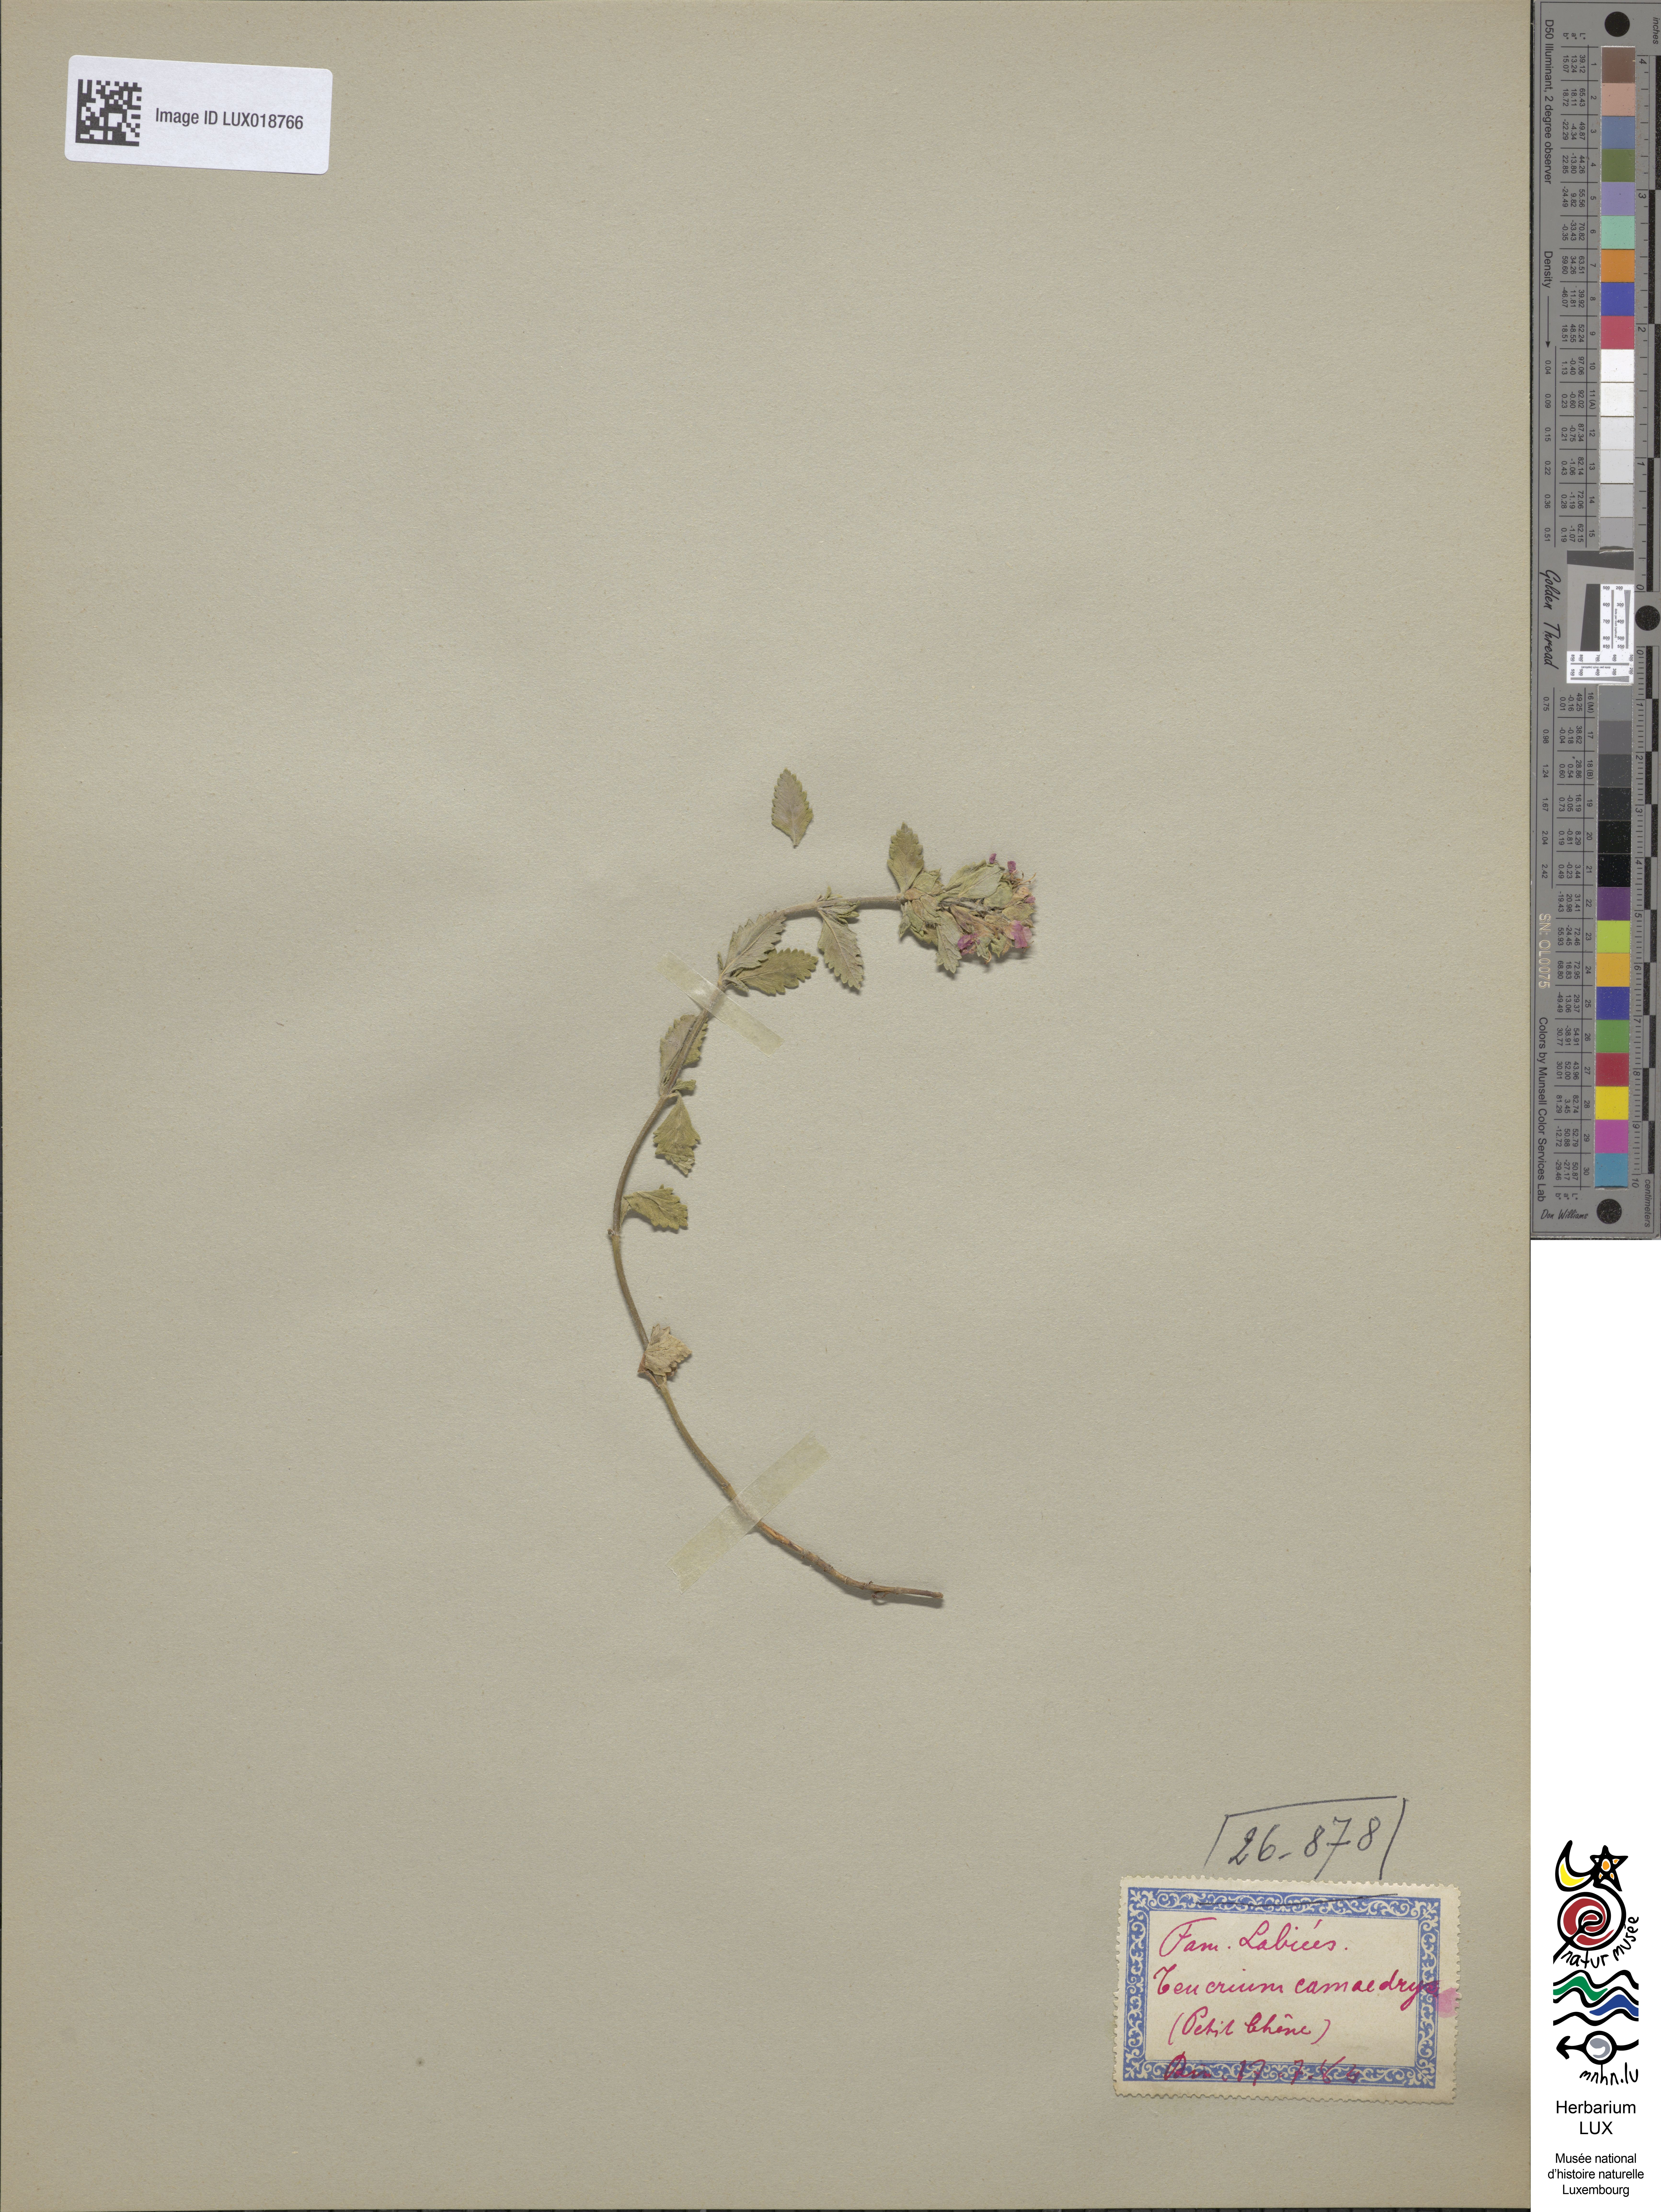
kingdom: Plantae
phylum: Tracheophyta
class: Magnoliopsida
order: Lamiales
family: Lamiaceae
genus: Teucrium
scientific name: Teucrium chamaedrys
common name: Wall germander
